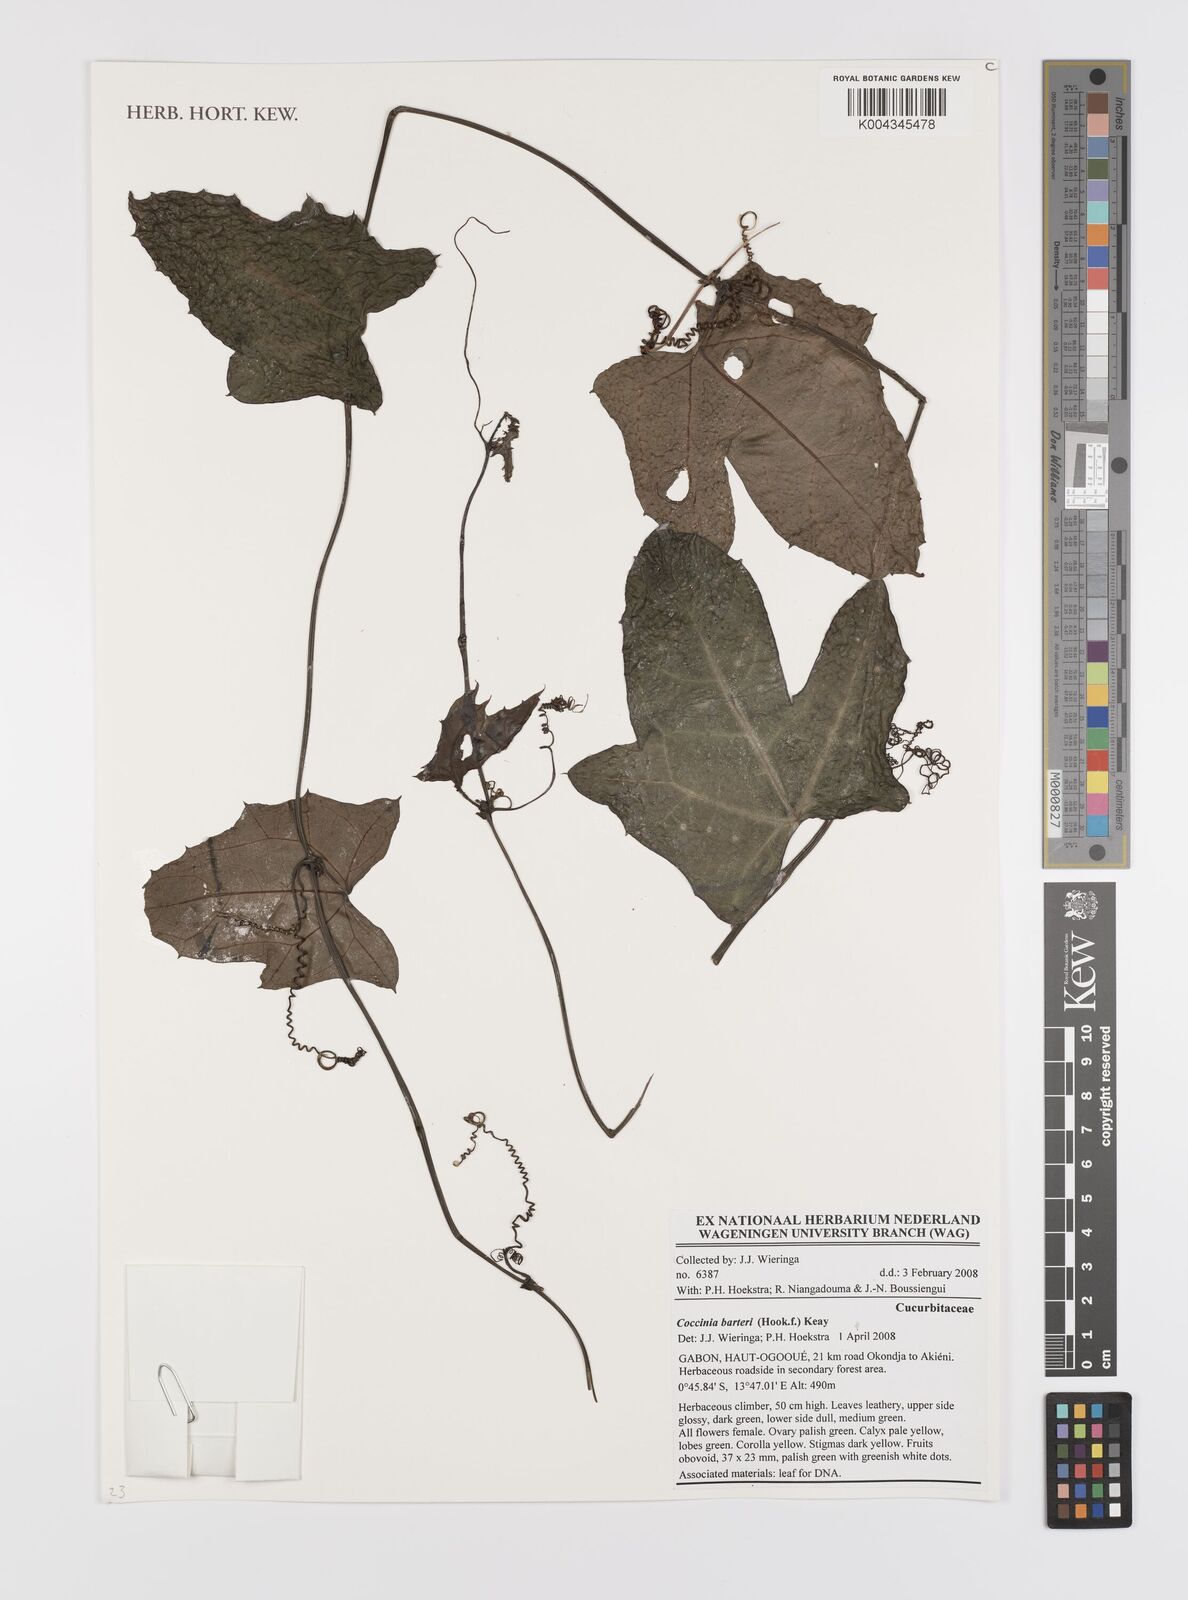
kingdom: Plantae
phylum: Tracheophyta
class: Magnoliopsida
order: Cucurbitales
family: Cucurbitaceae
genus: Coccinia
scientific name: Coccinia barteri
